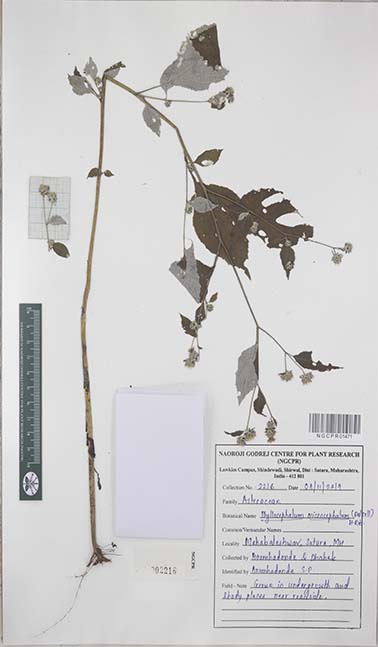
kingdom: Plantae
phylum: Tracheophyta
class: Magnoliopsida
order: Asterales
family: Asteraceae
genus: Phyllocephalum
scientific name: Phyllocephalum microcephalum
